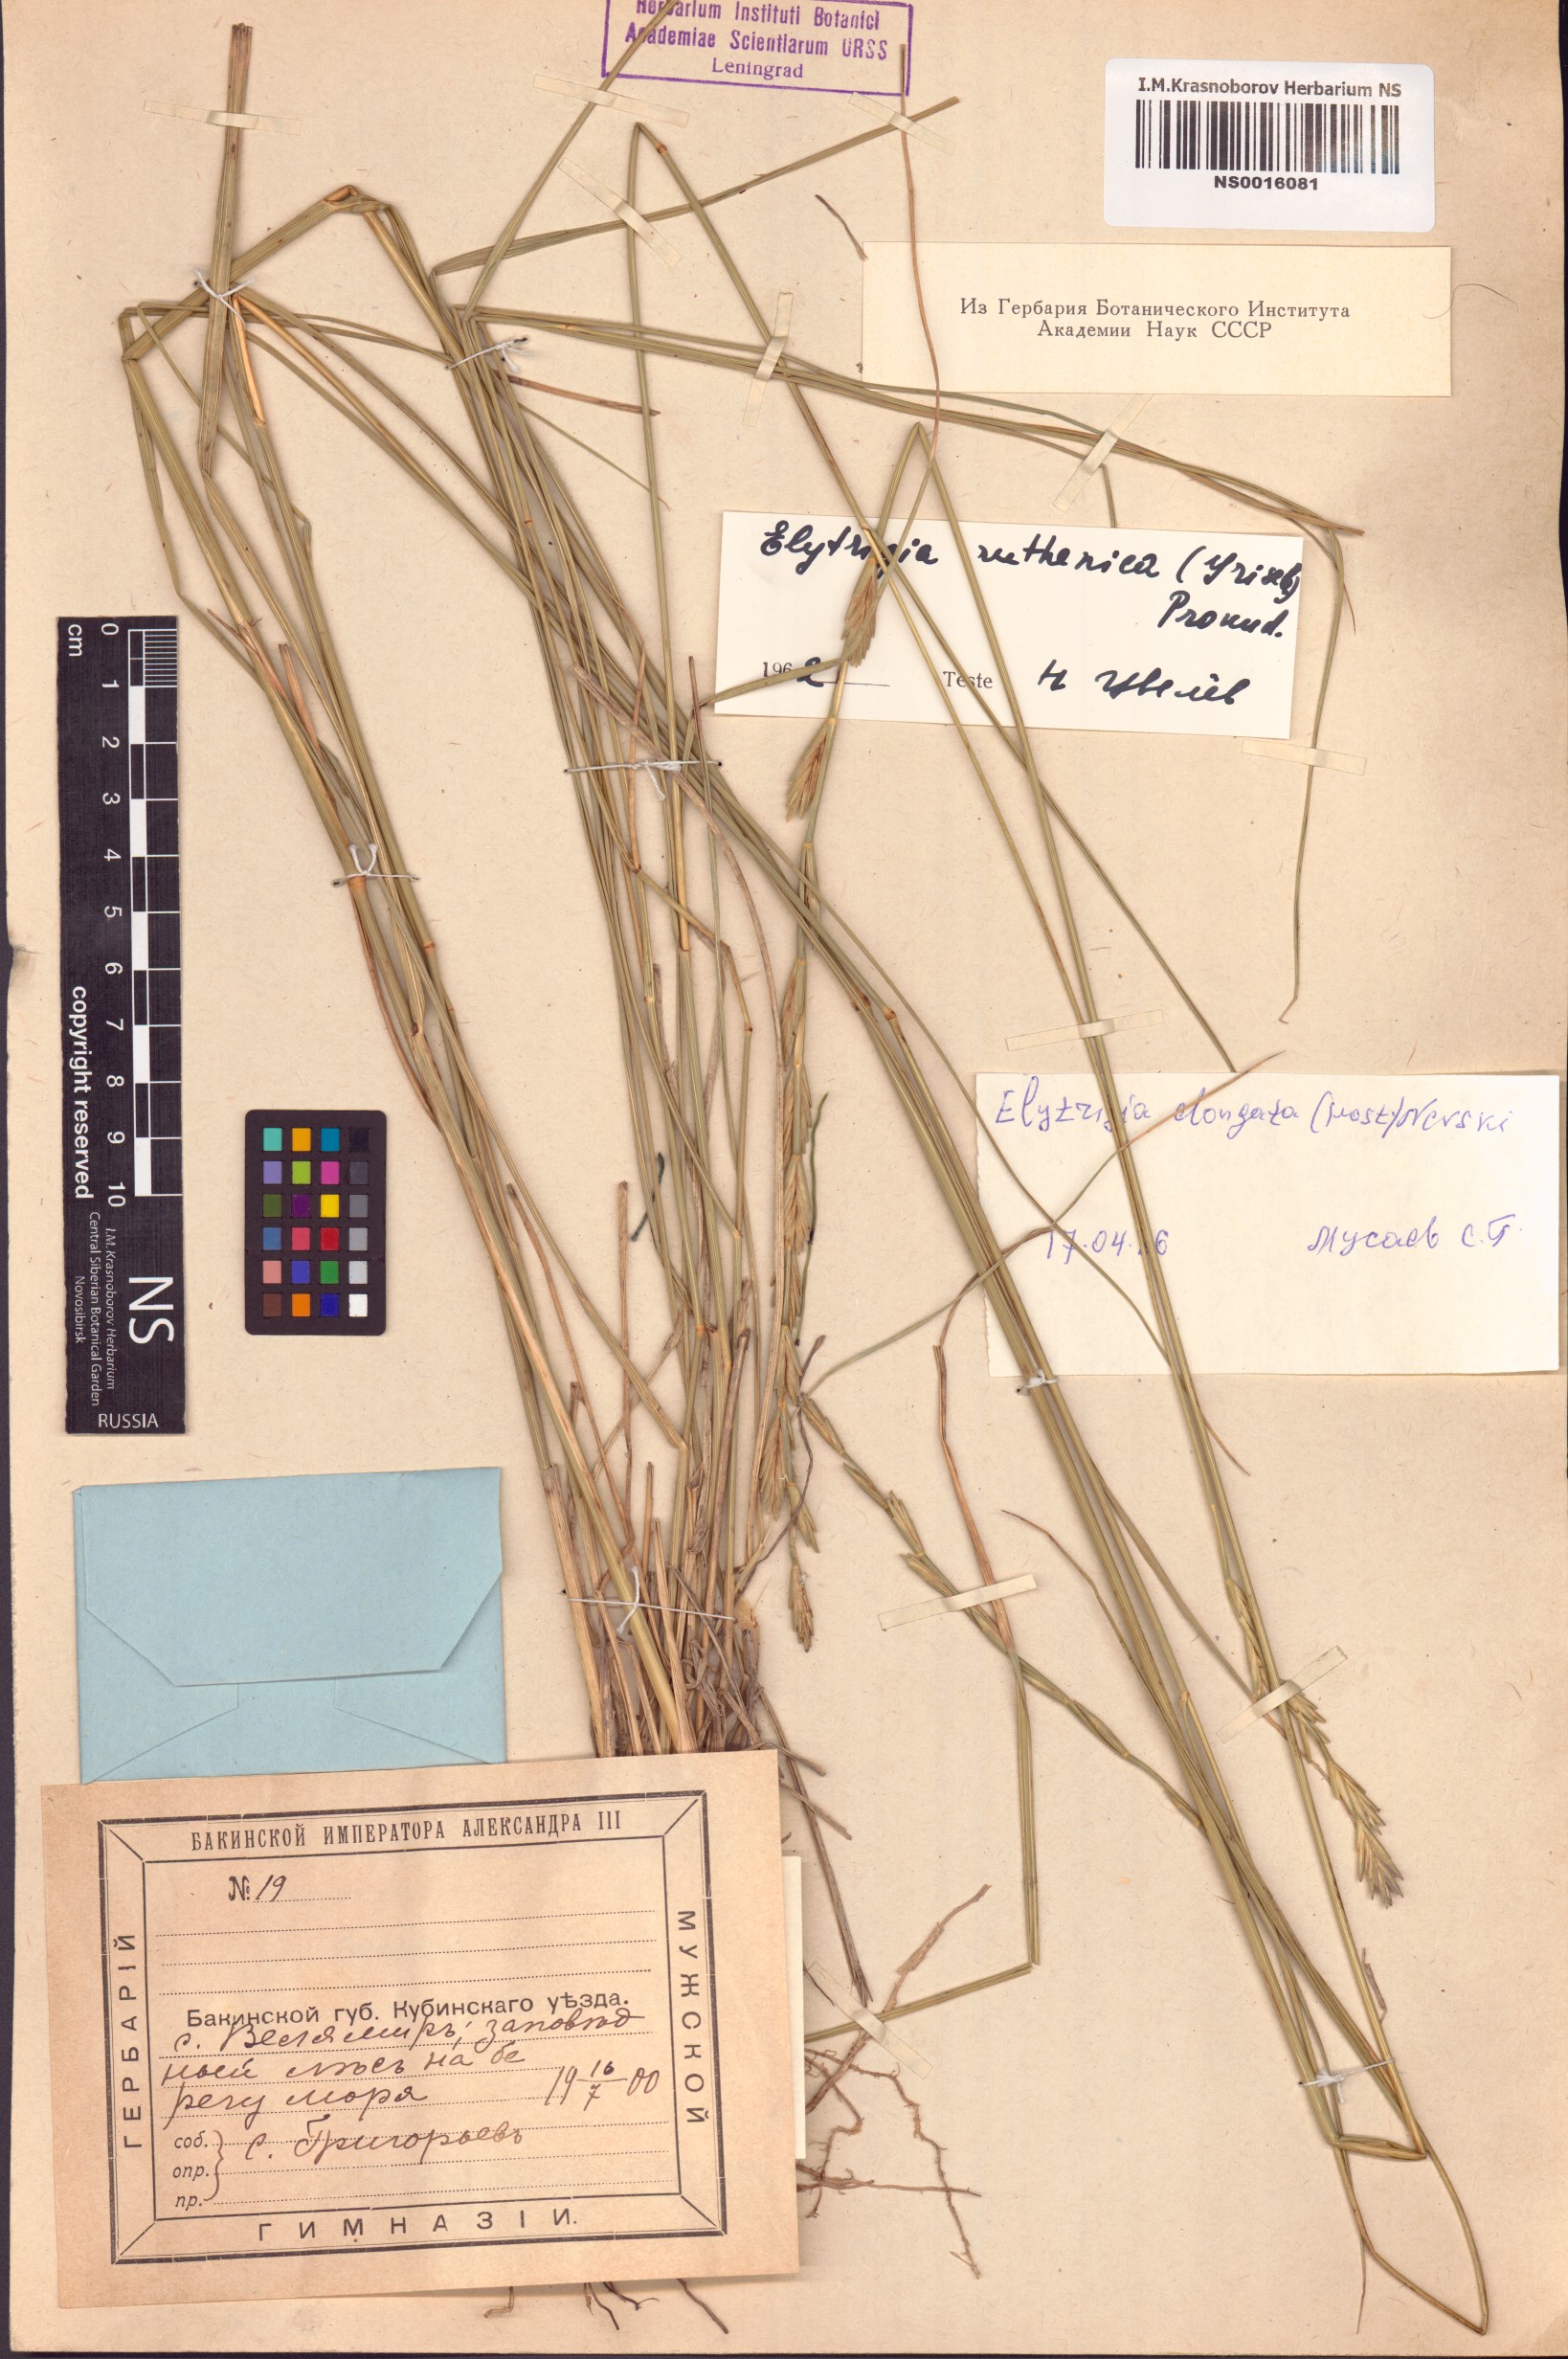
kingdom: Plantae
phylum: Tracheophyta
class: Liliopsida
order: Poales
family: Poaceae
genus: Thinopyrum
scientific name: Thinopyrum elongatum
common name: Tall wheatgrass
